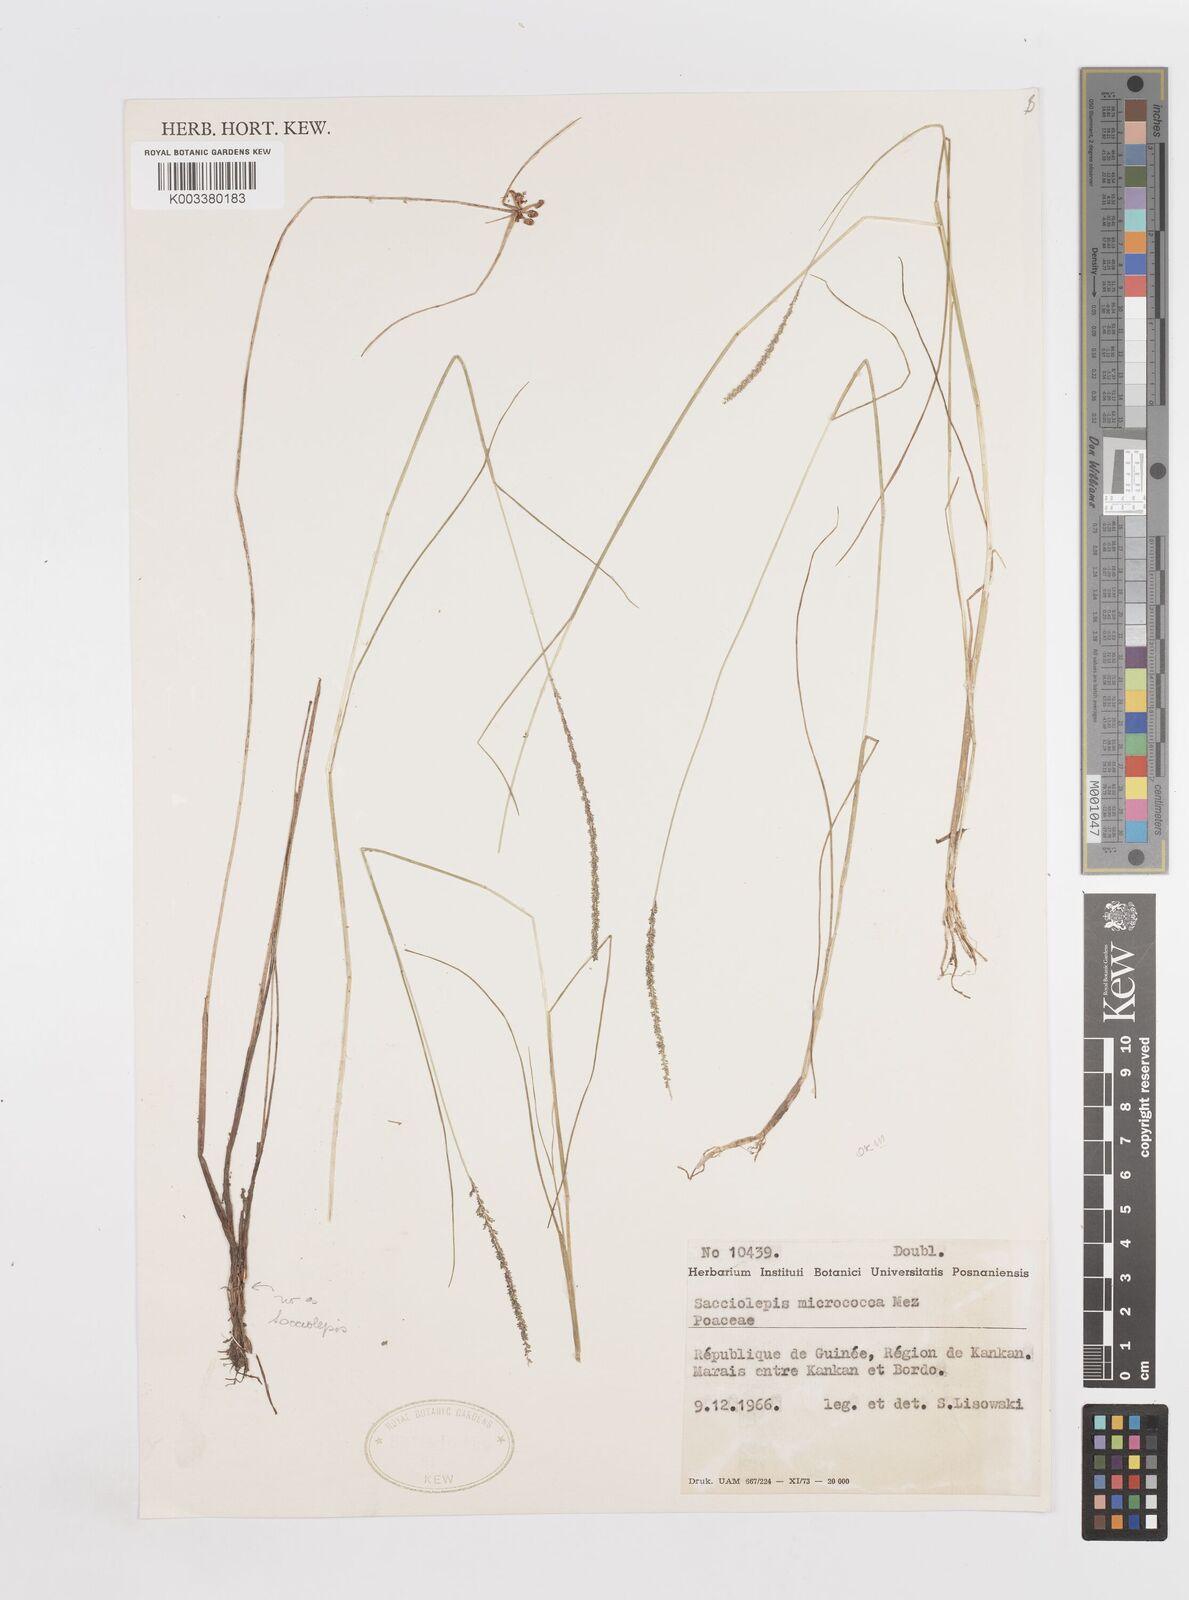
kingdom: Plantae
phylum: Tracheophyta
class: Liliopsida
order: Poales
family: Poaceae
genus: Sacciolepis
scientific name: Sacciolepis micrococca
